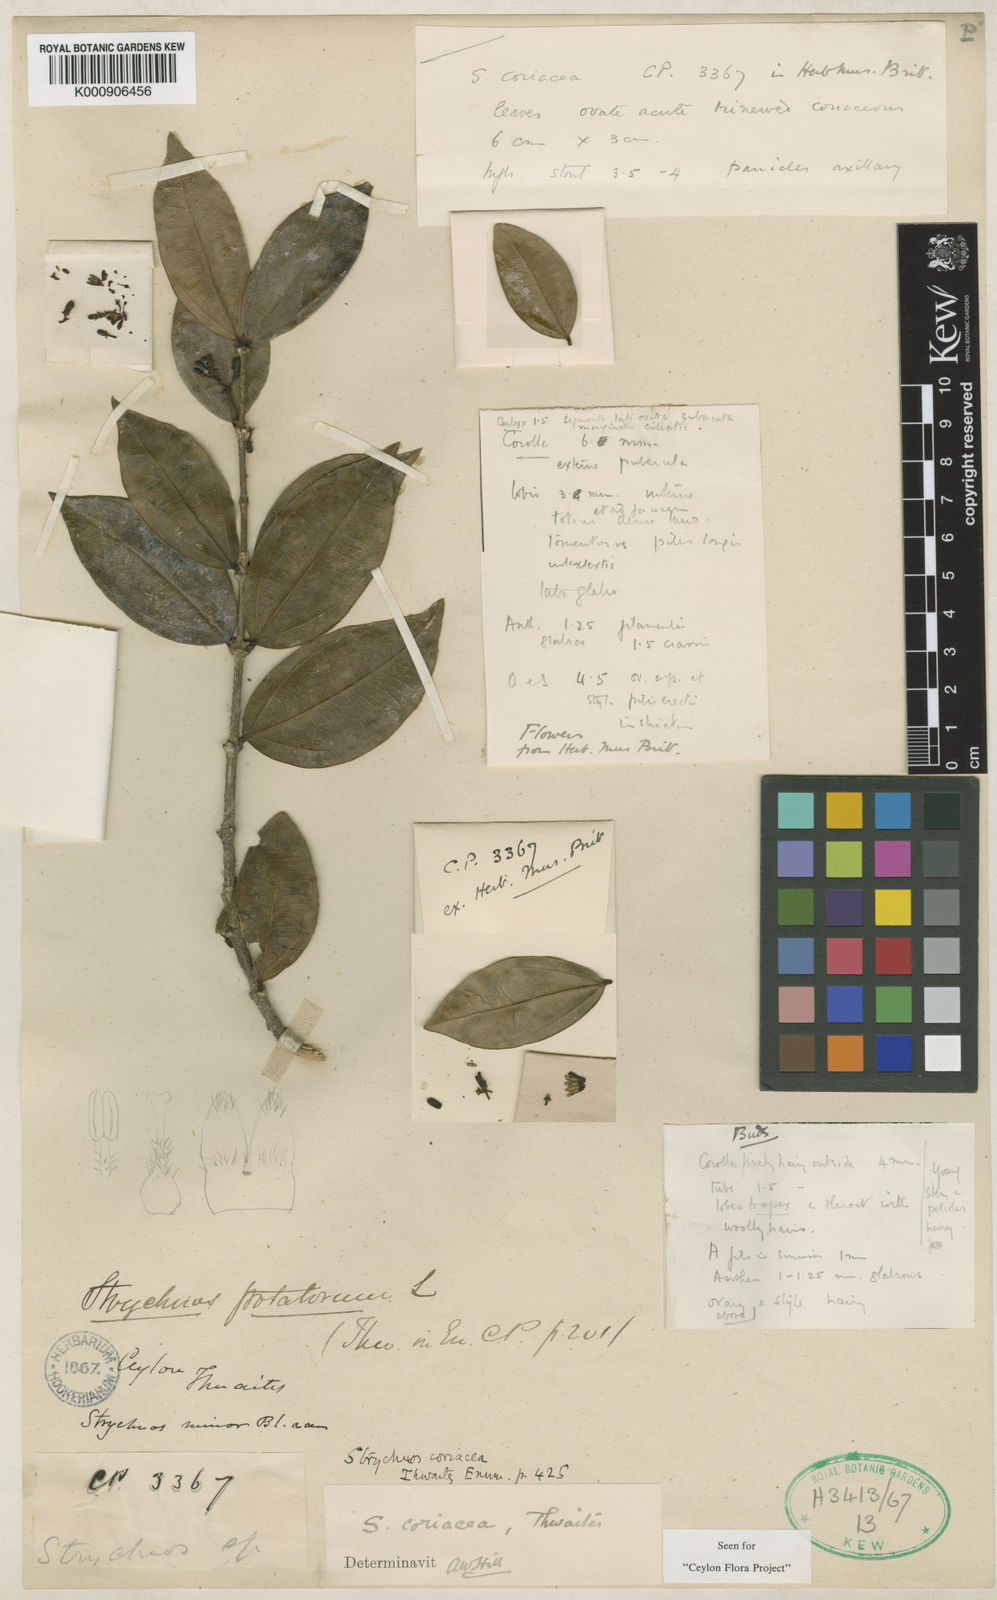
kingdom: Plantae
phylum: Tracheophyta
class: Magnoliopsida
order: Gentianales
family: Loganiaceae
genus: Strychnos
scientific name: Strychnos coriacea
